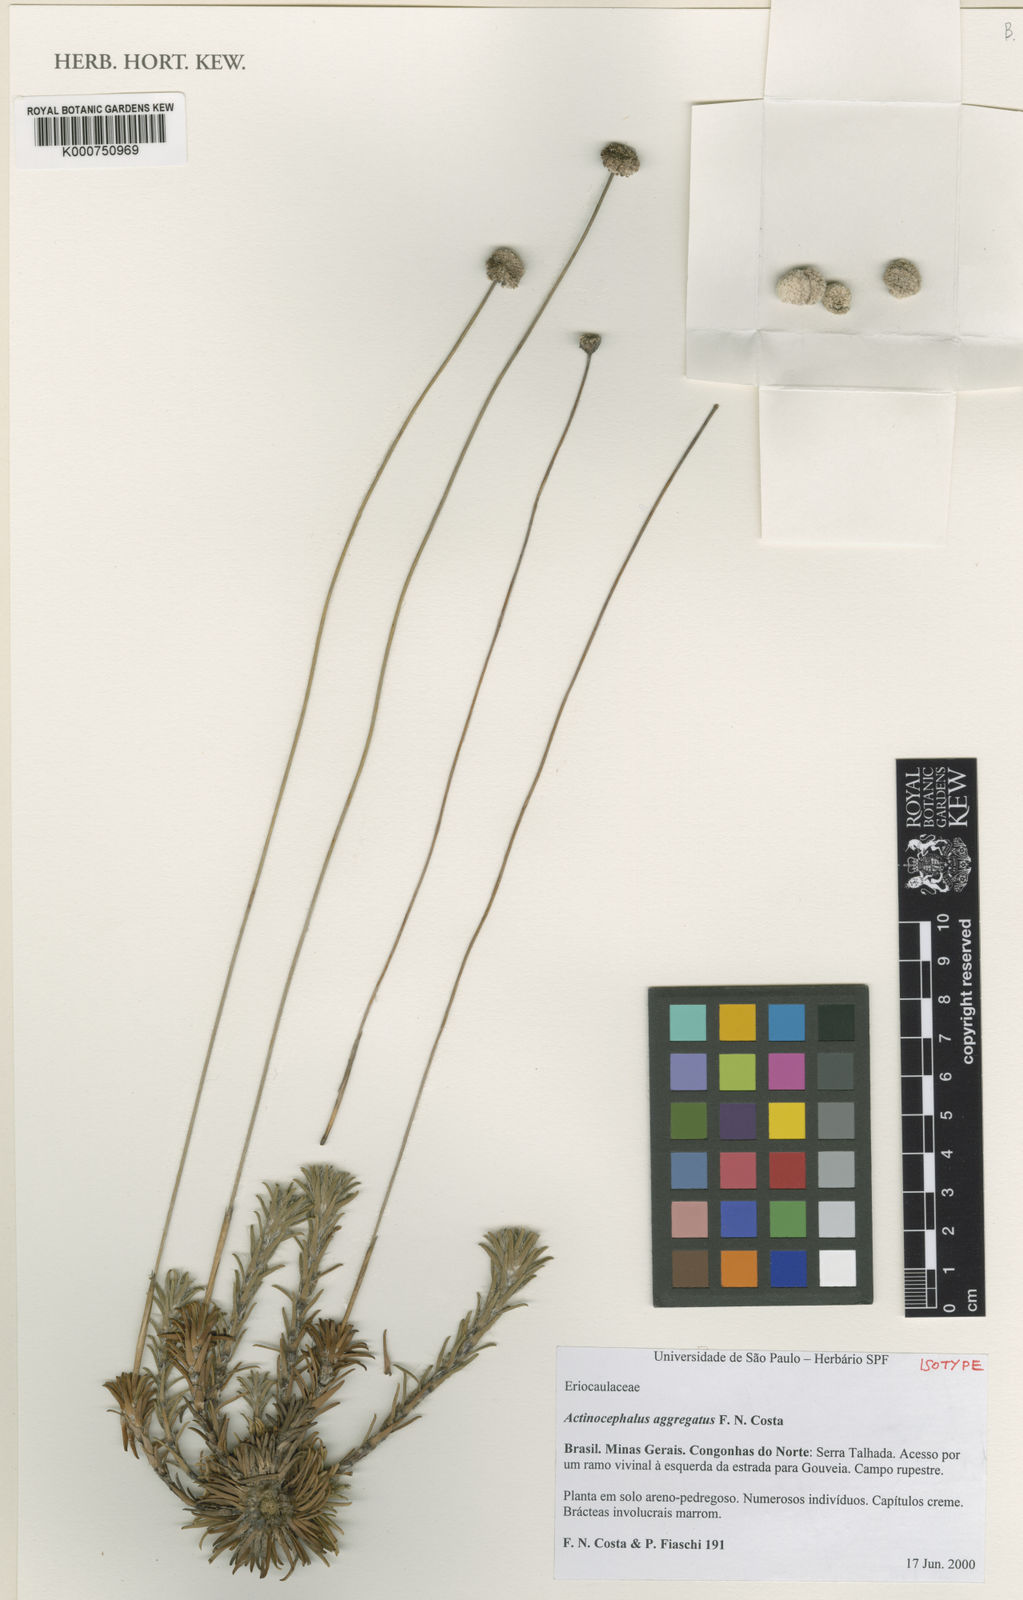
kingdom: Plantae
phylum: Tracheophyta
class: Liliopsida
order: Poales
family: Eriocaulaceae
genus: Paepalanthus
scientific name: Paepalanthus aggregatus
